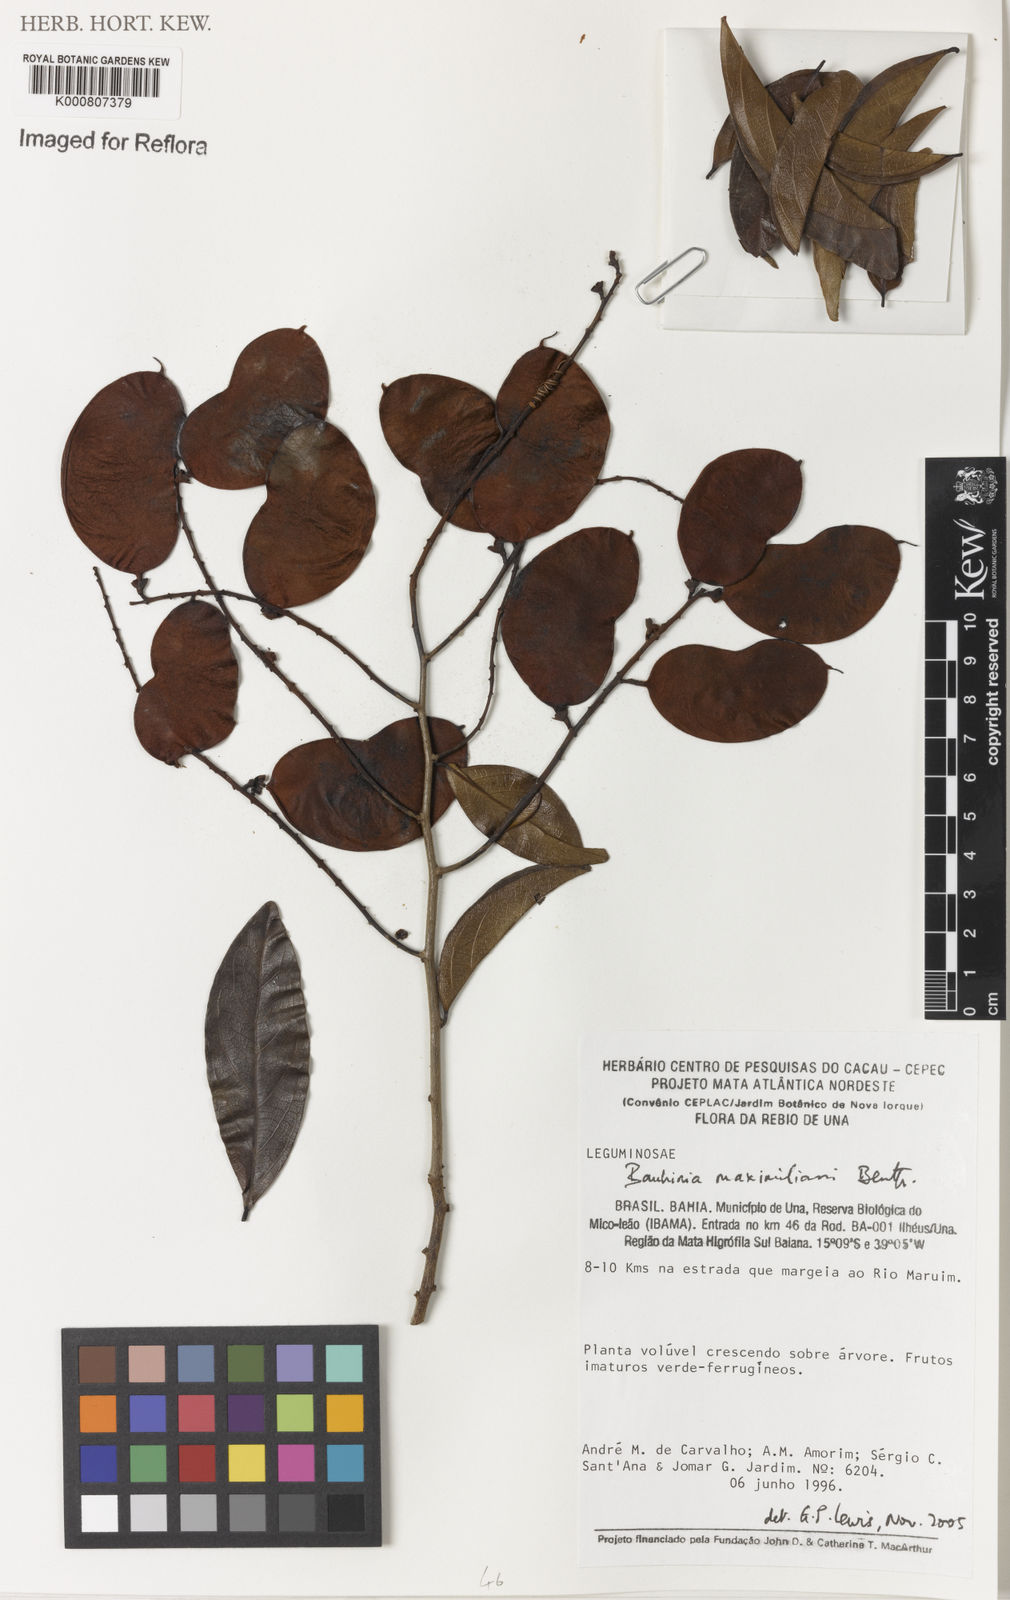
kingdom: Plantae
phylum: Tracheophyta
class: Magnoliopsida
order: Fabales
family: Fabaceae
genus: Schnella
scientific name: Schnella maximiliani
